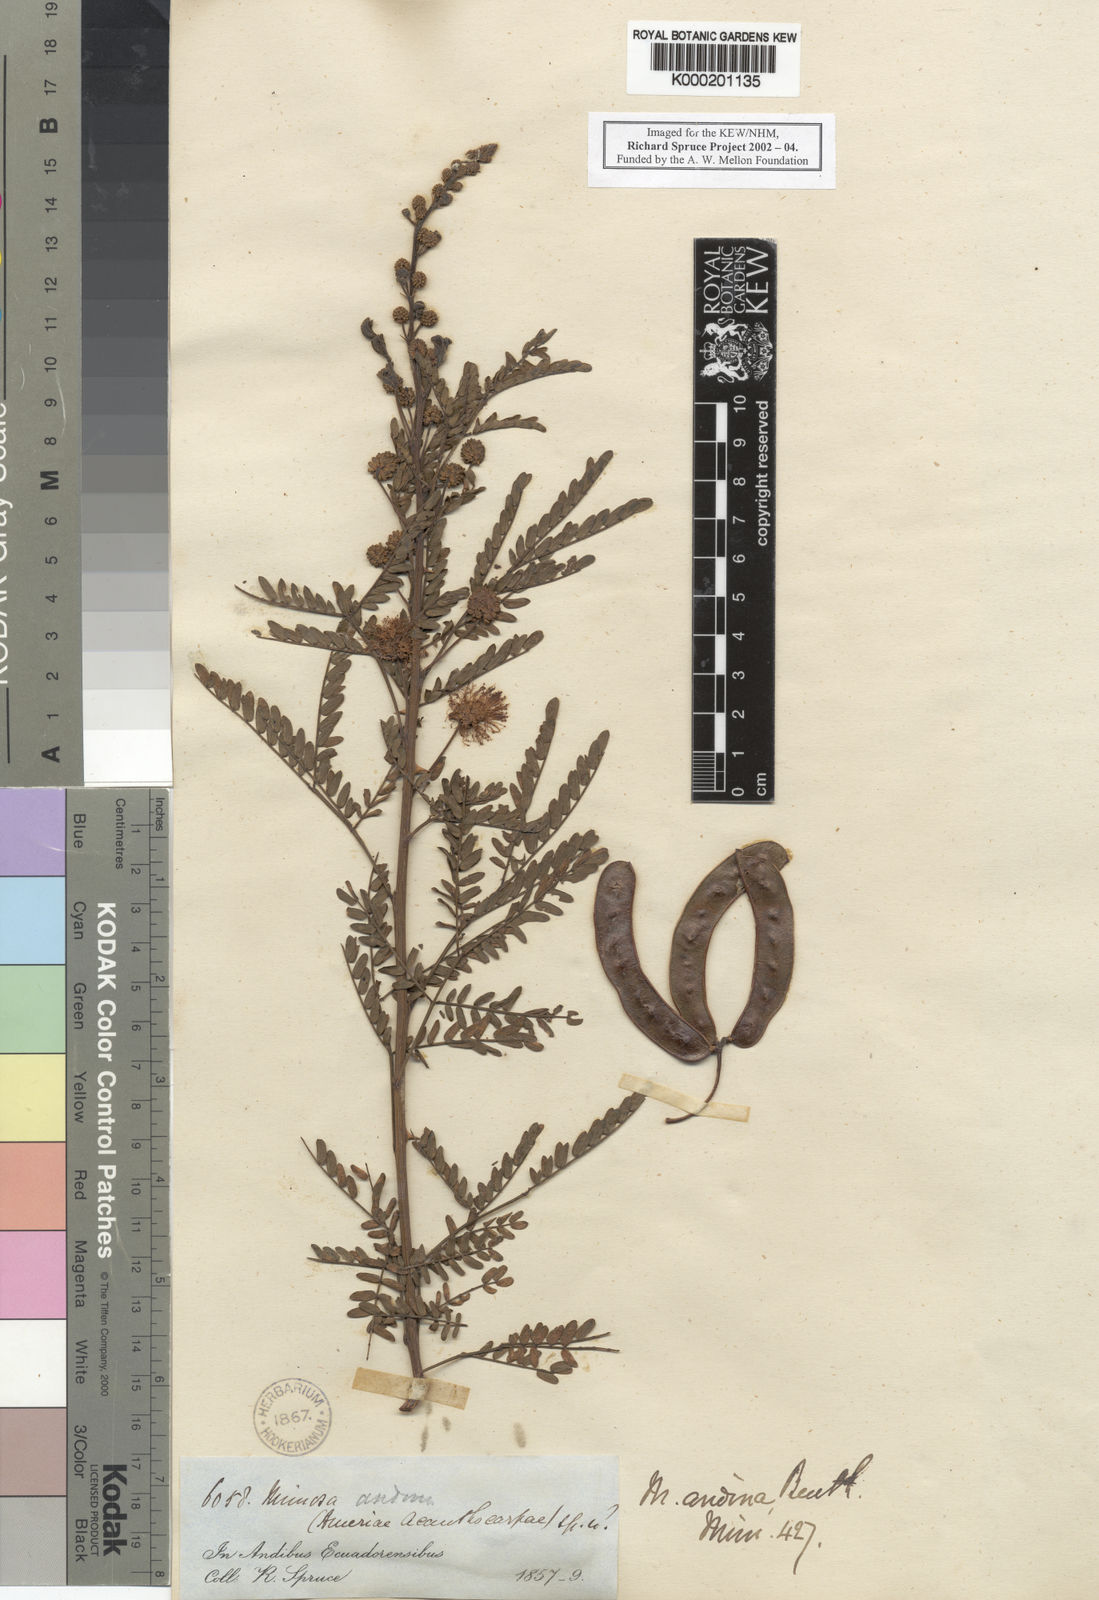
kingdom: Plantae
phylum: Tracheophyta
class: Magnoliopsida
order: Fabales
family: Fabaceae
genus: Mimosa
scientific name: Mimosa andina
